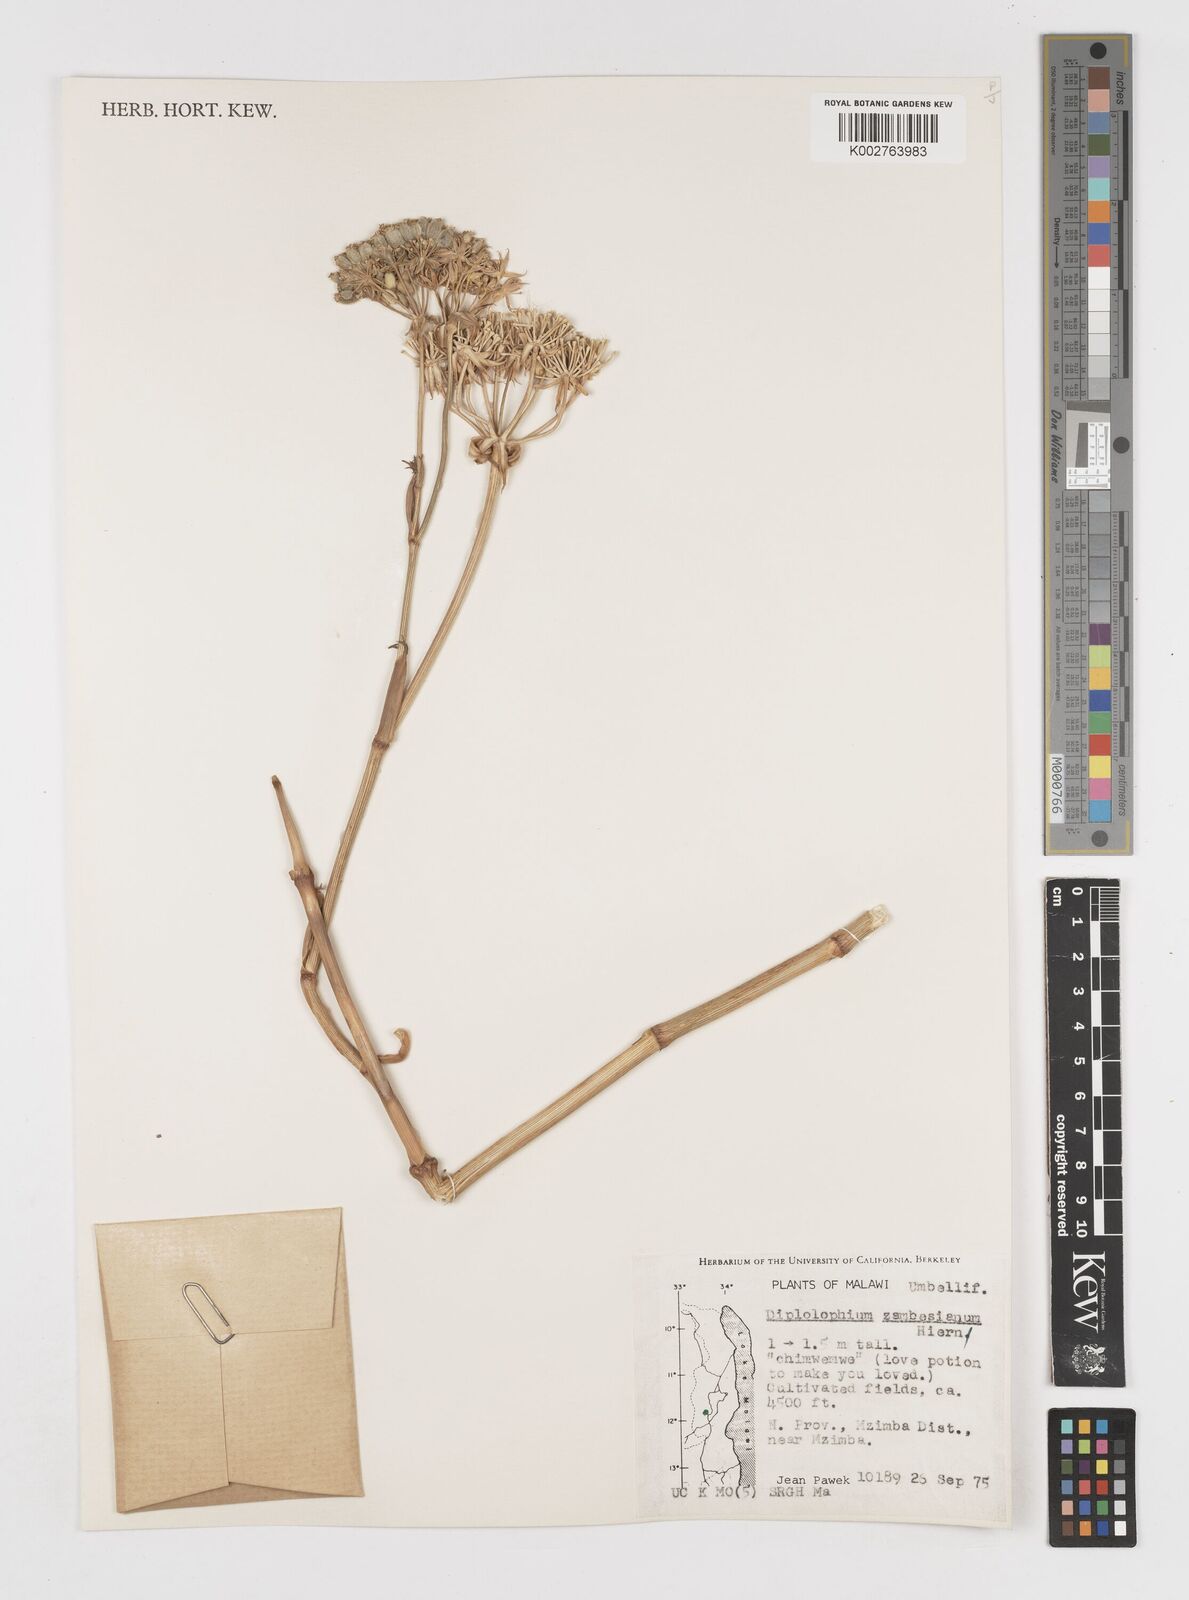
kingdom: Plantae
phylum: Tracheophyta
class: Magnoliopsida
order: Apiales
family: Apiaceae
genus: Diplolophium
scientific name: Diplolophium zambesianum
